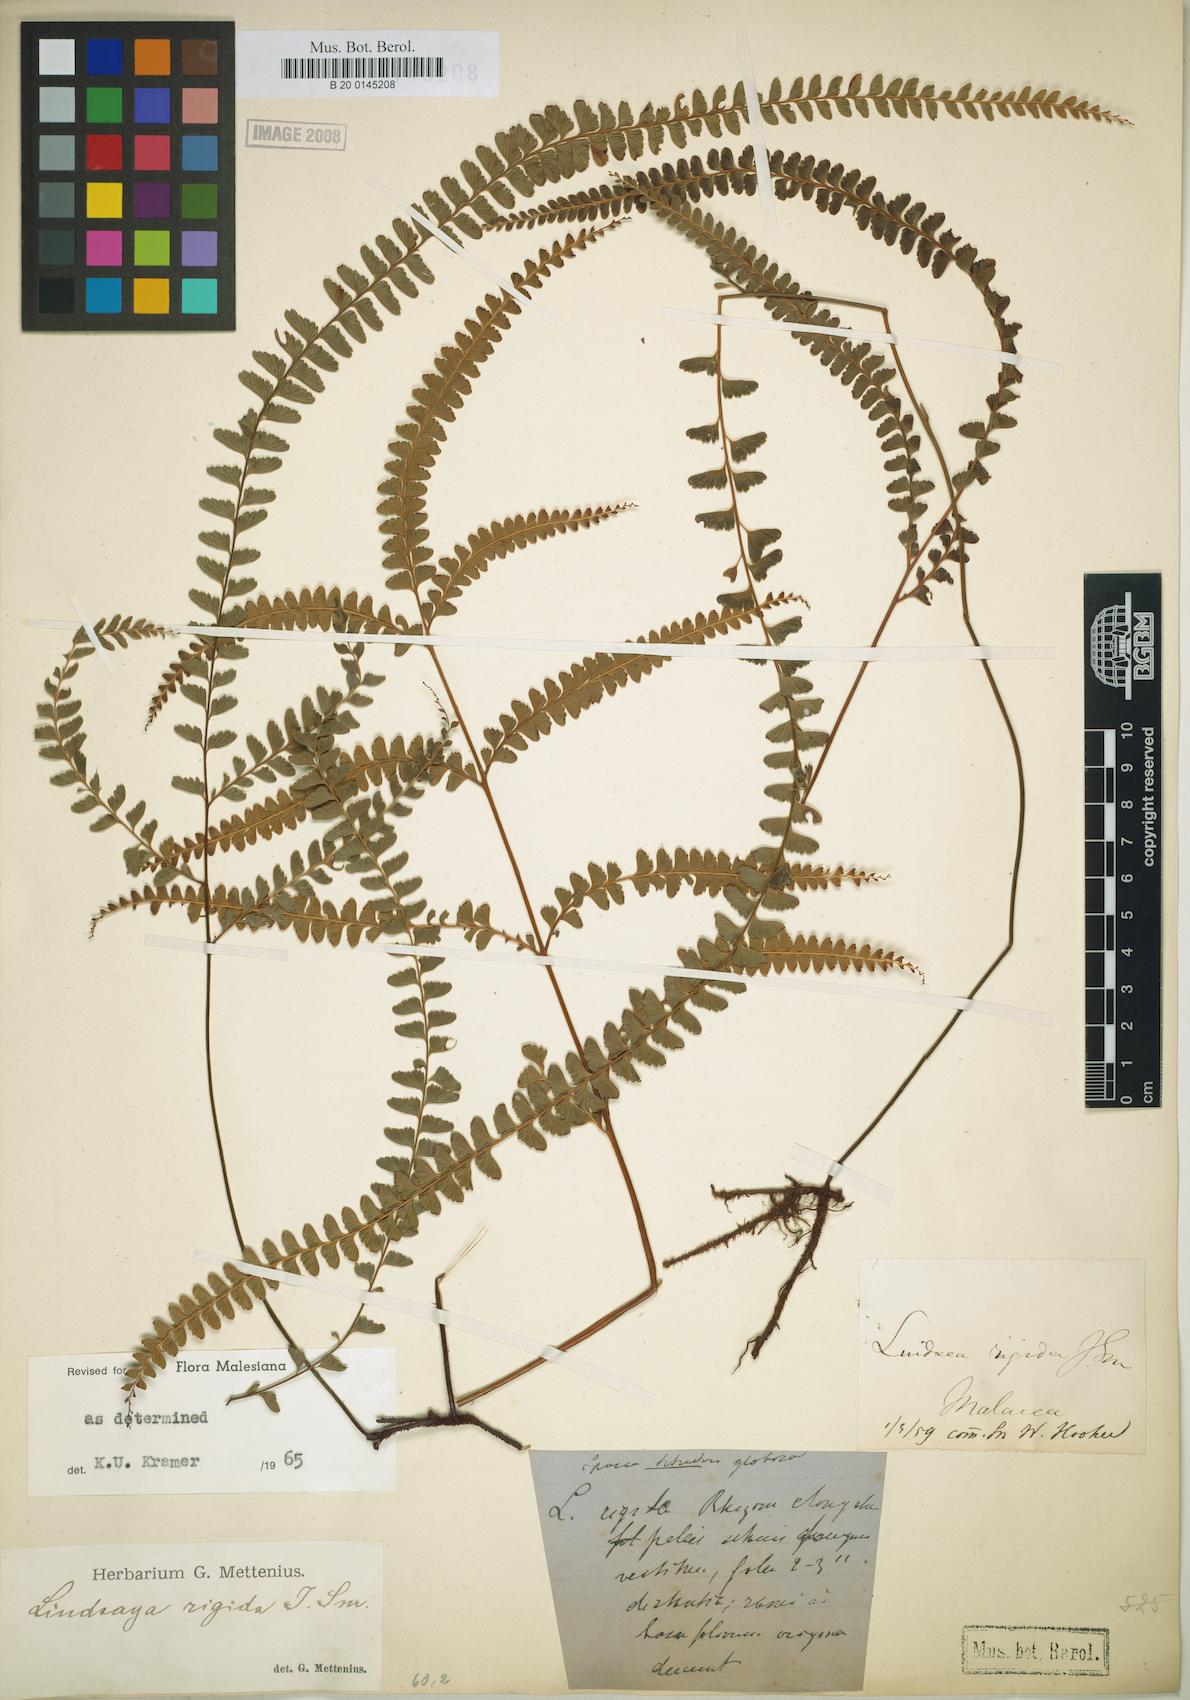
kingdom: Plantae
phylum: Tracheophyta
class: Polypodiopsida
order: Polypodiales
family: Lindsaeaceae
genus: Lindsaea
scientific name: Lindsaea rigida
